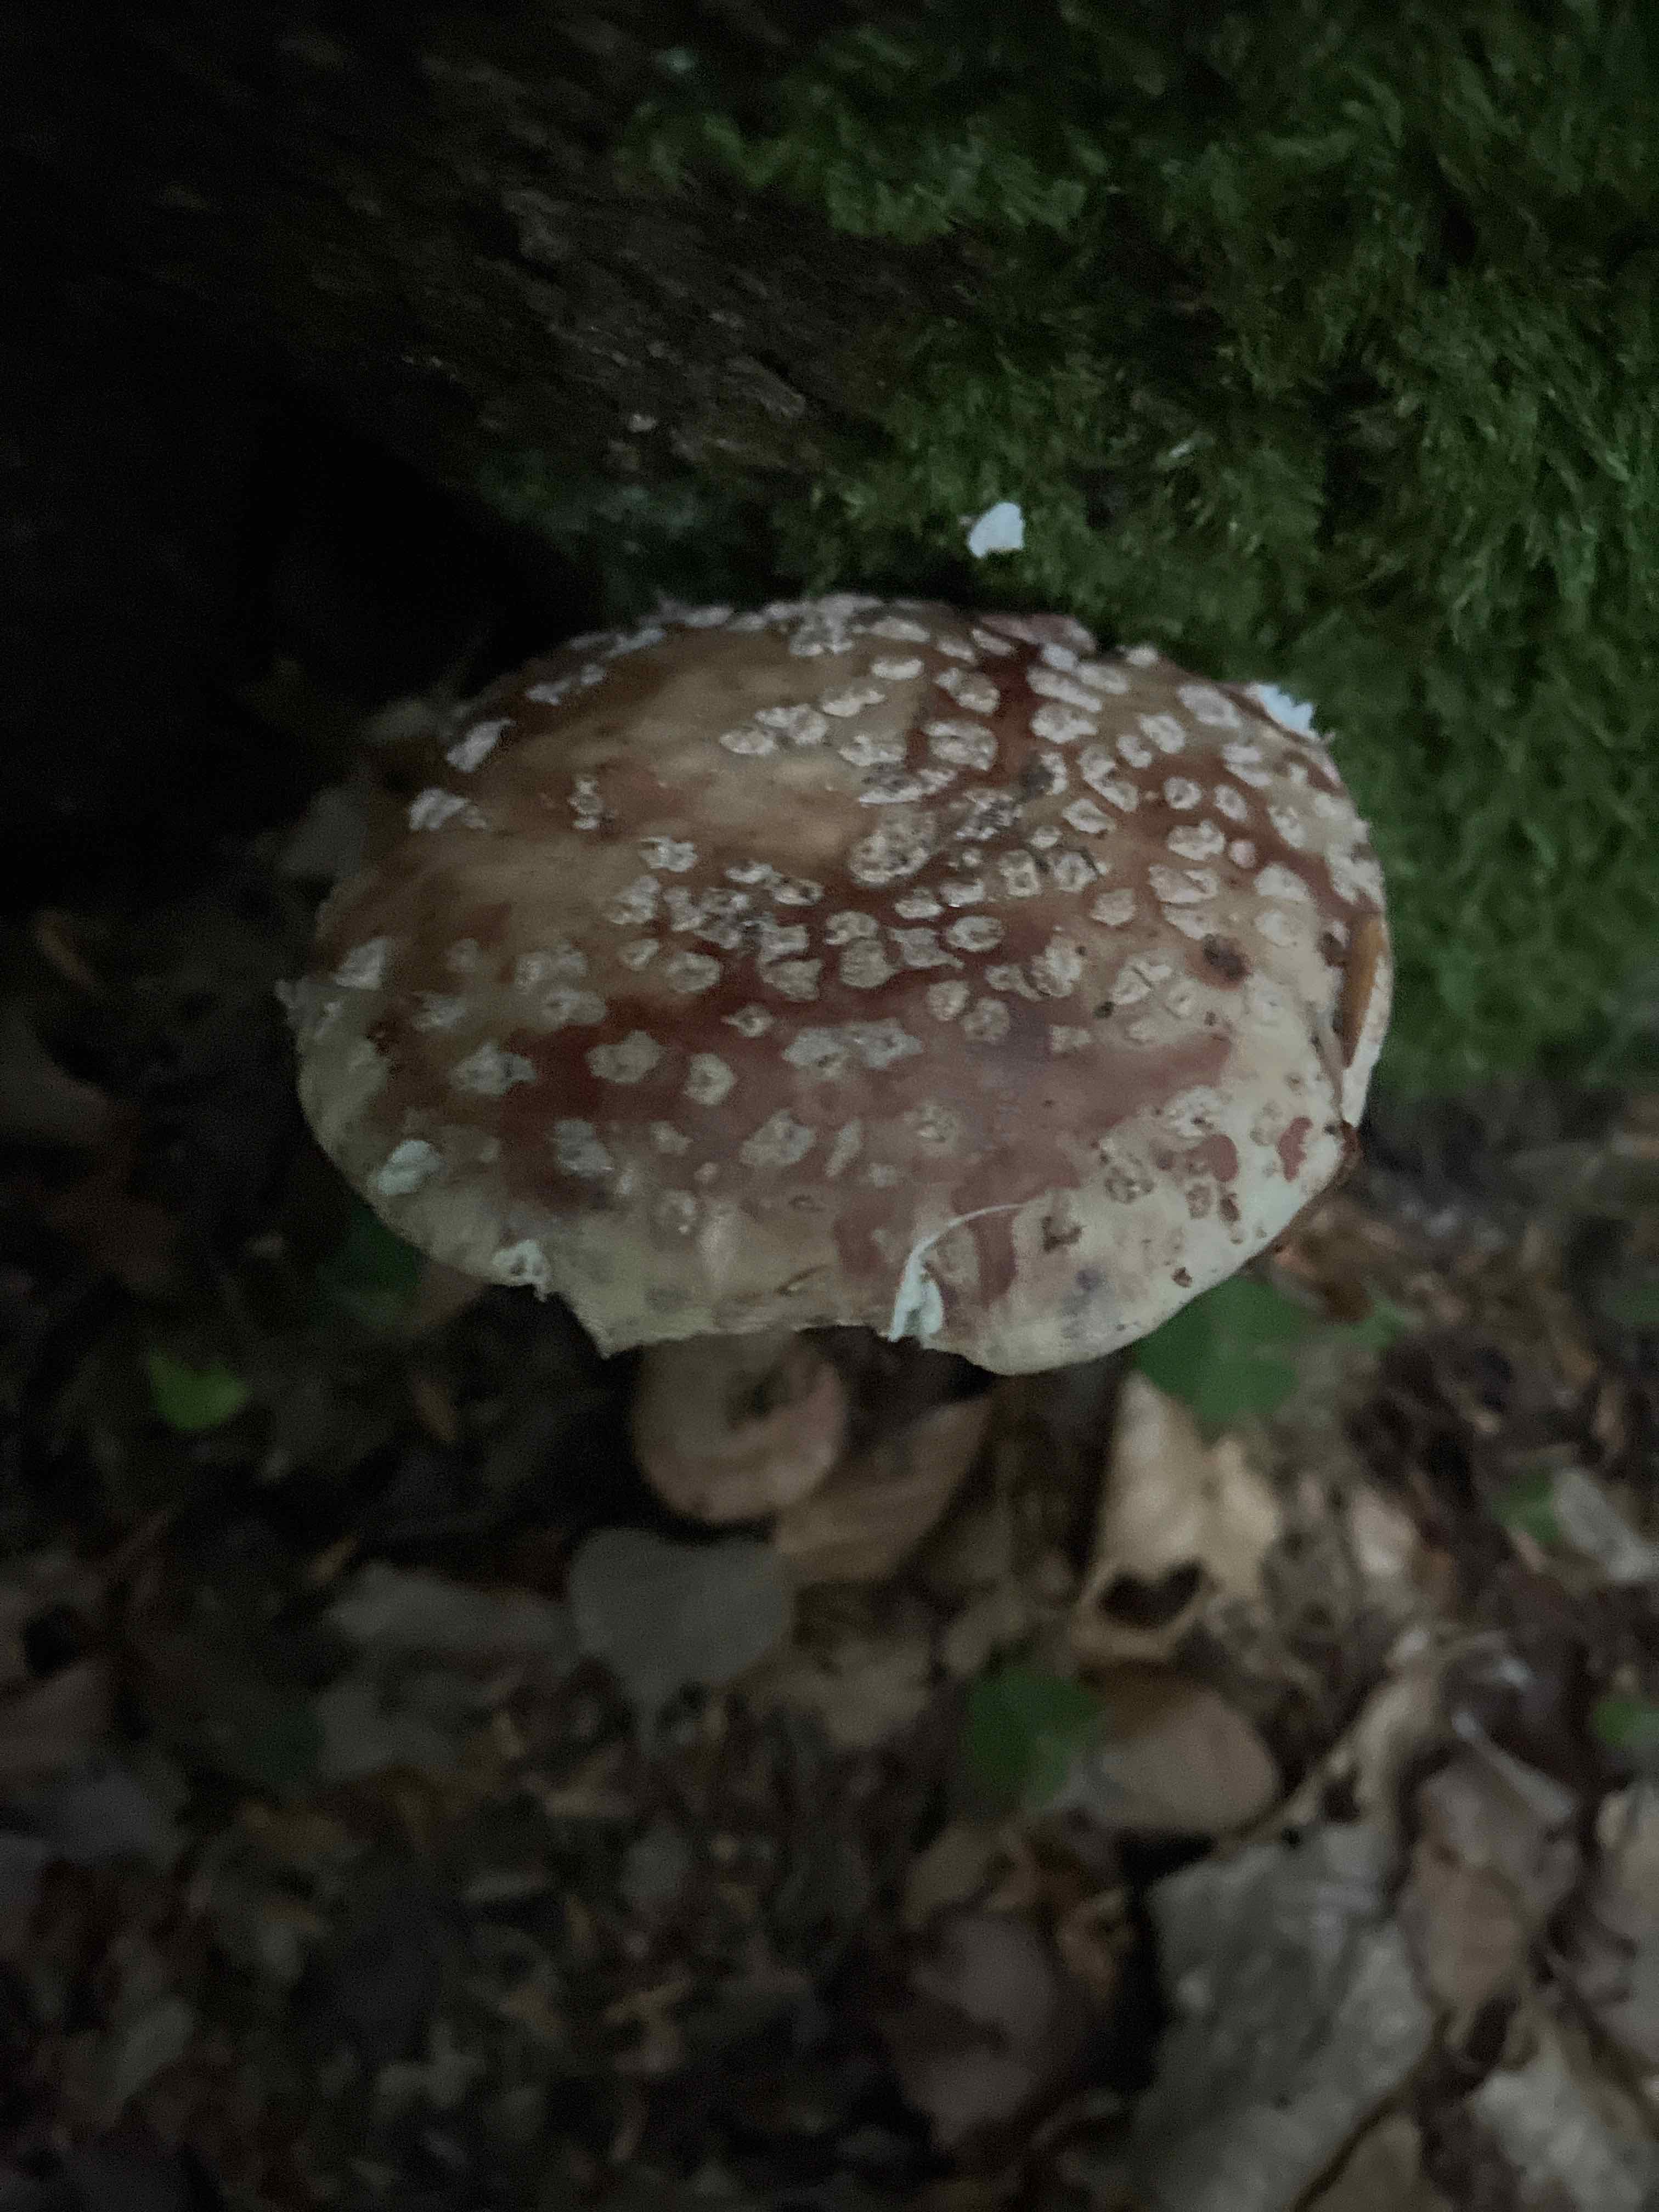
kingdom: Fungi
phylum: Basidiomycota
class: Agaricomycetes
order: Agaricales
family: Amanitaceae
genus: Amanita
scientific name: Amanita rubescens
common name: rødmende fluesvamp
